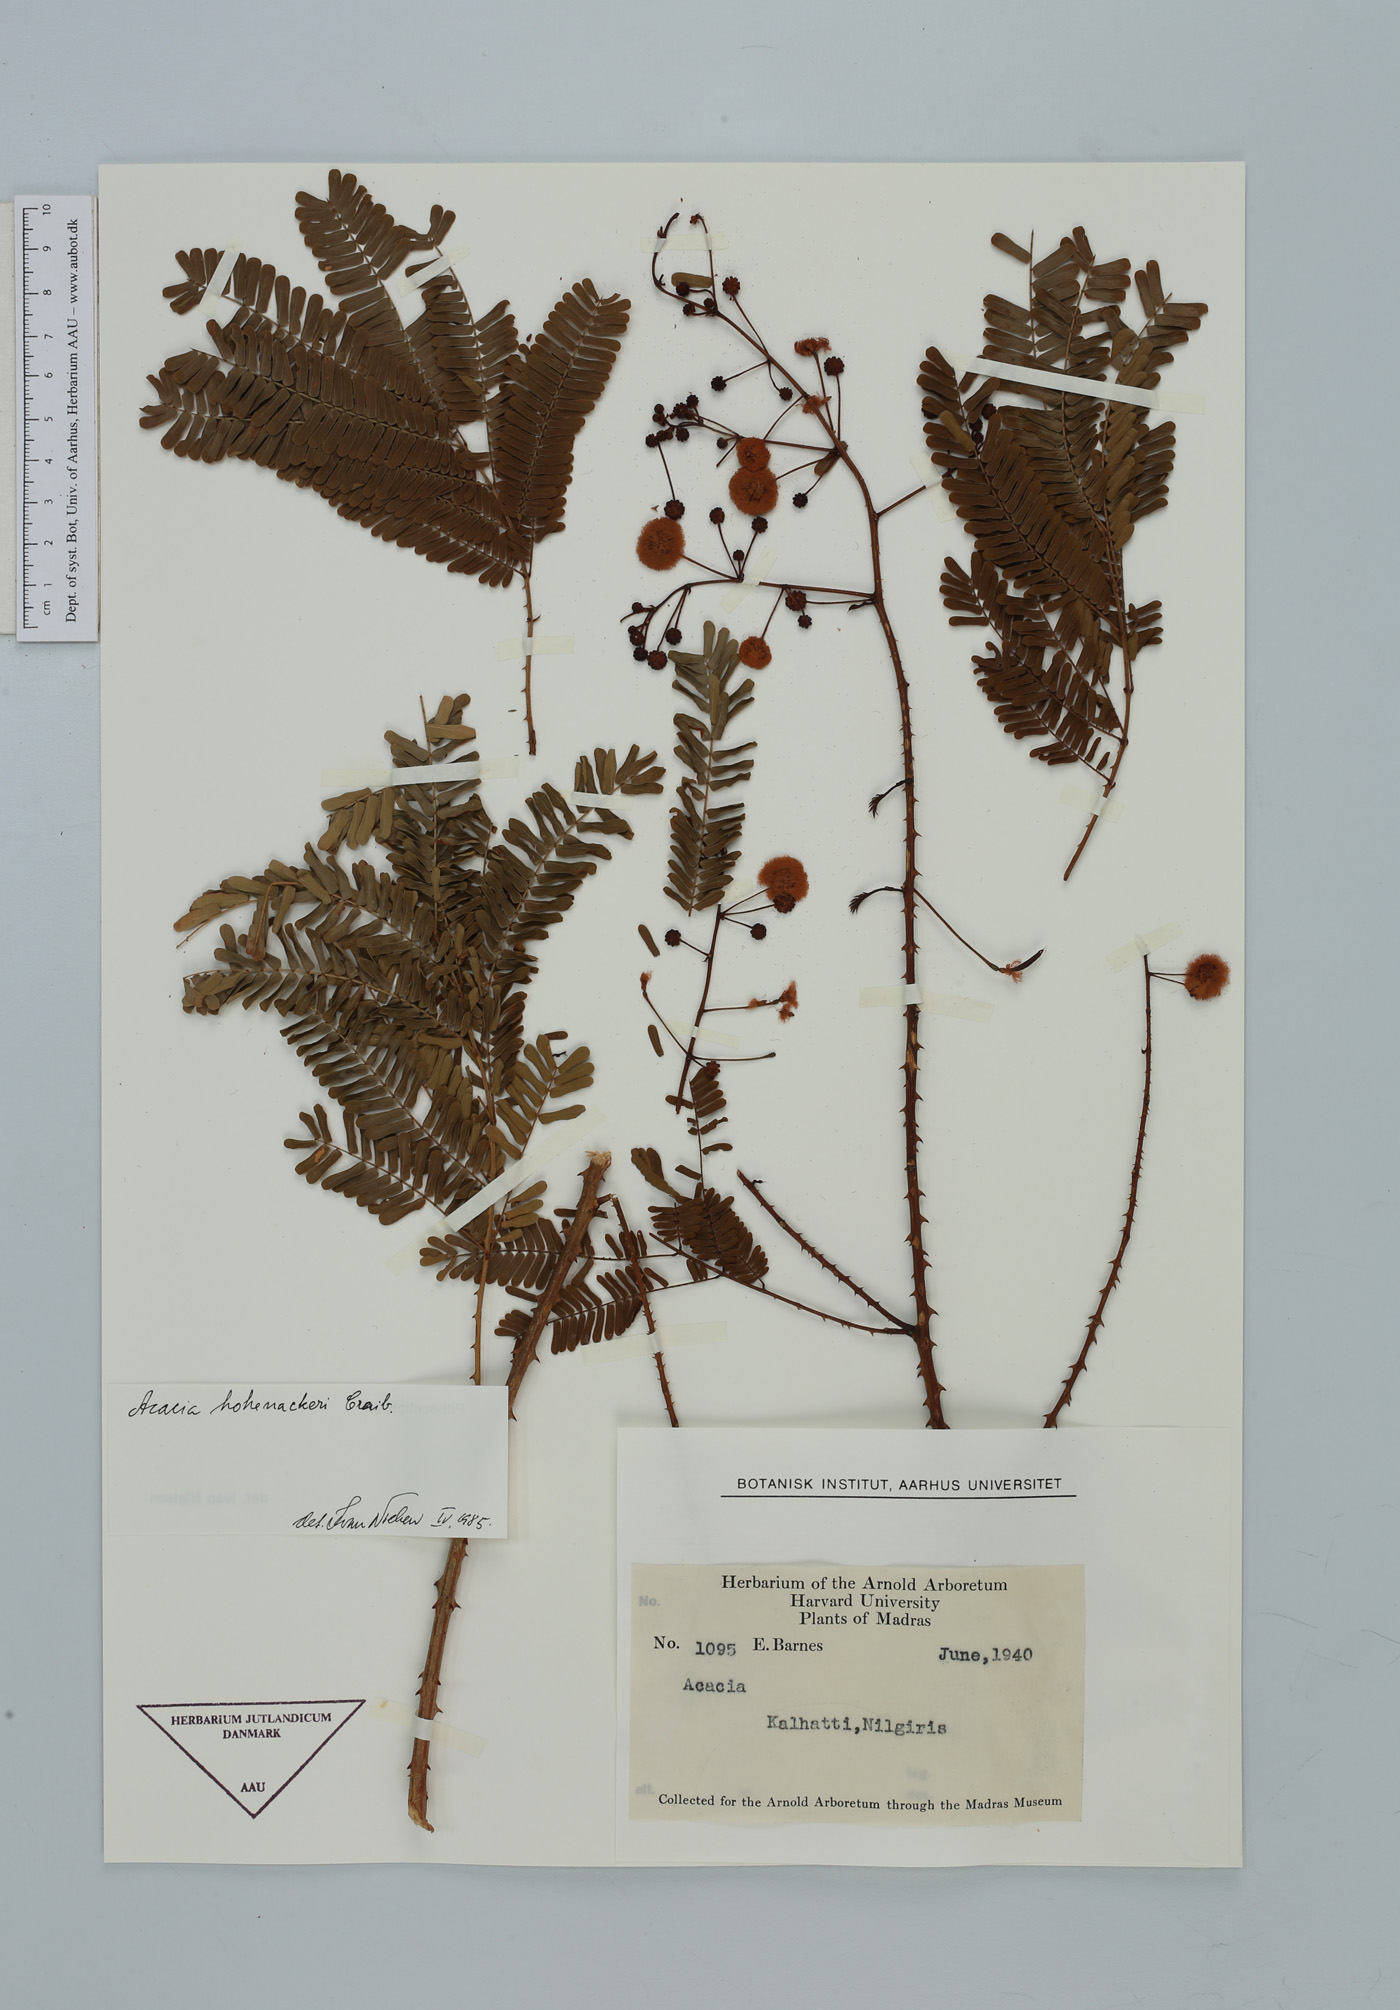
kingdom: Plantae
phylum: Tracheophyta
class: Magnoliopsida
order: Fabales
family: Fabaceae
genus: Senegalia
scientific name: Senegalia hohenackeri
